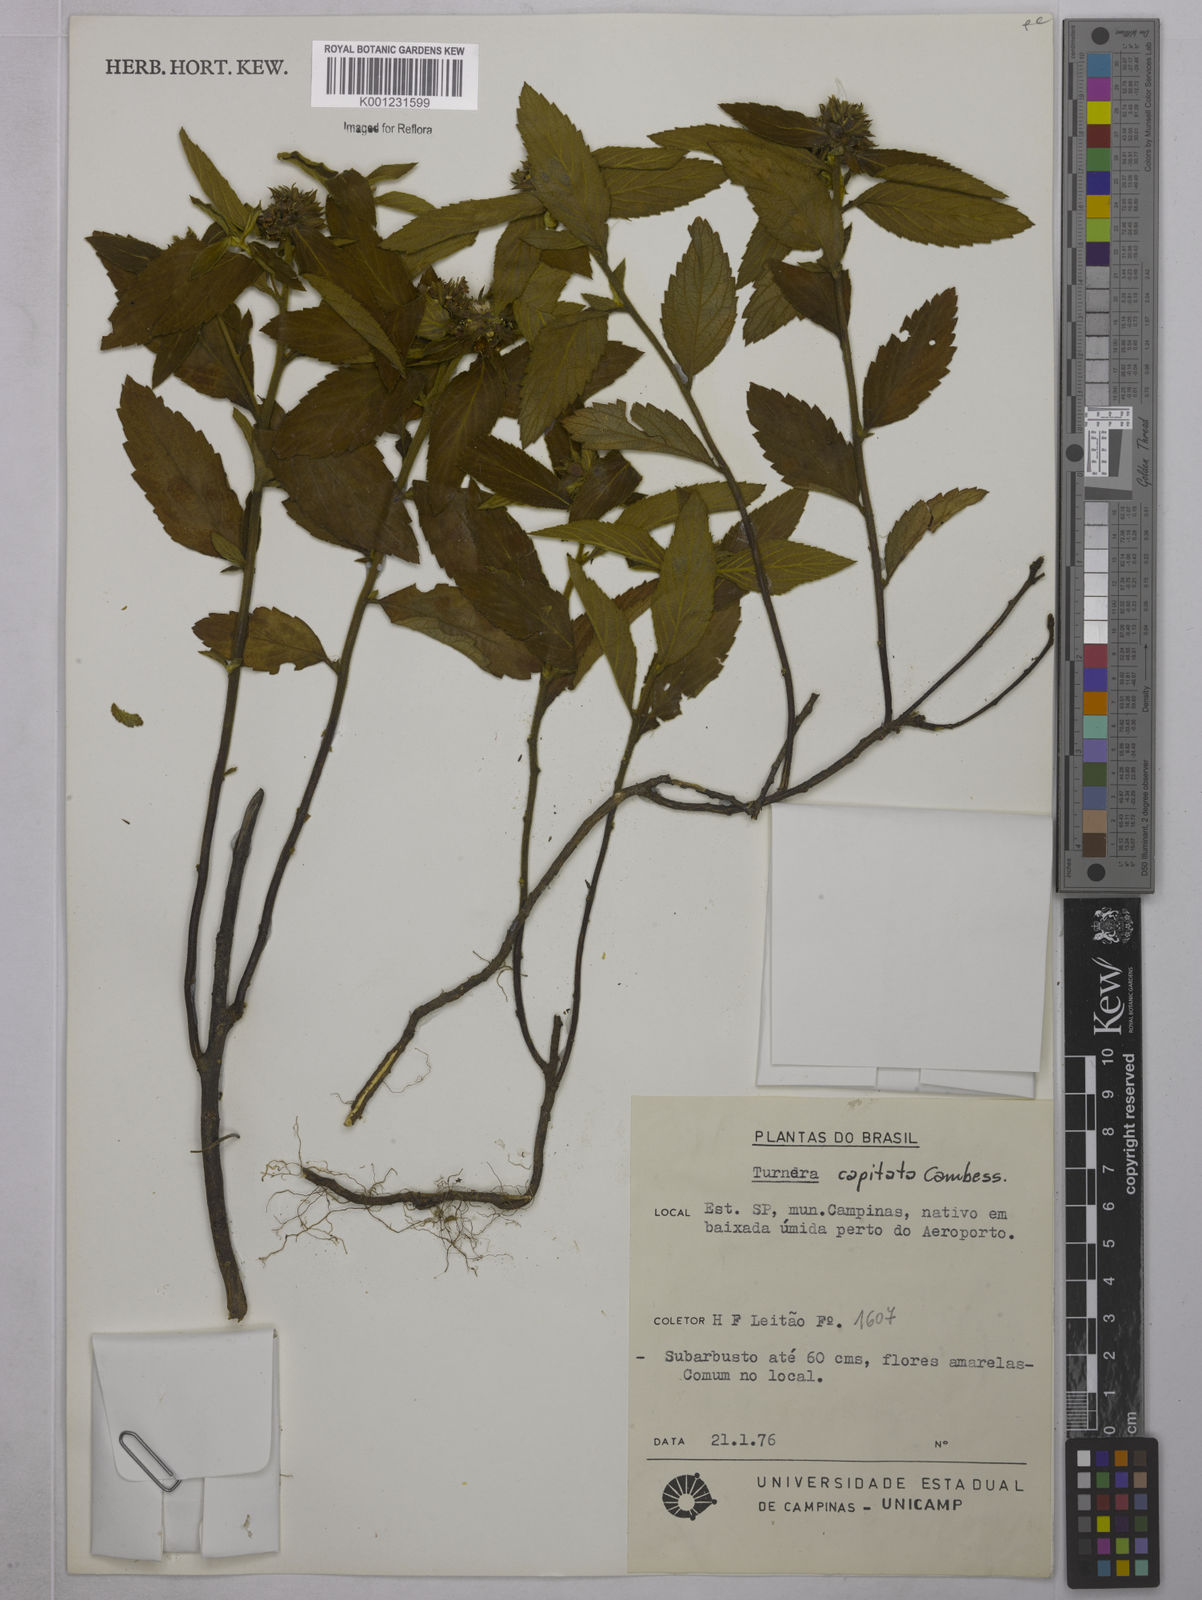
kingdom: Plantae
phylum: Tracheophyta
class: Magnoliopsida
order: Malpighiales
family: Turneraceae
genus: Oxossia
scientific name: Oxossia capitata
